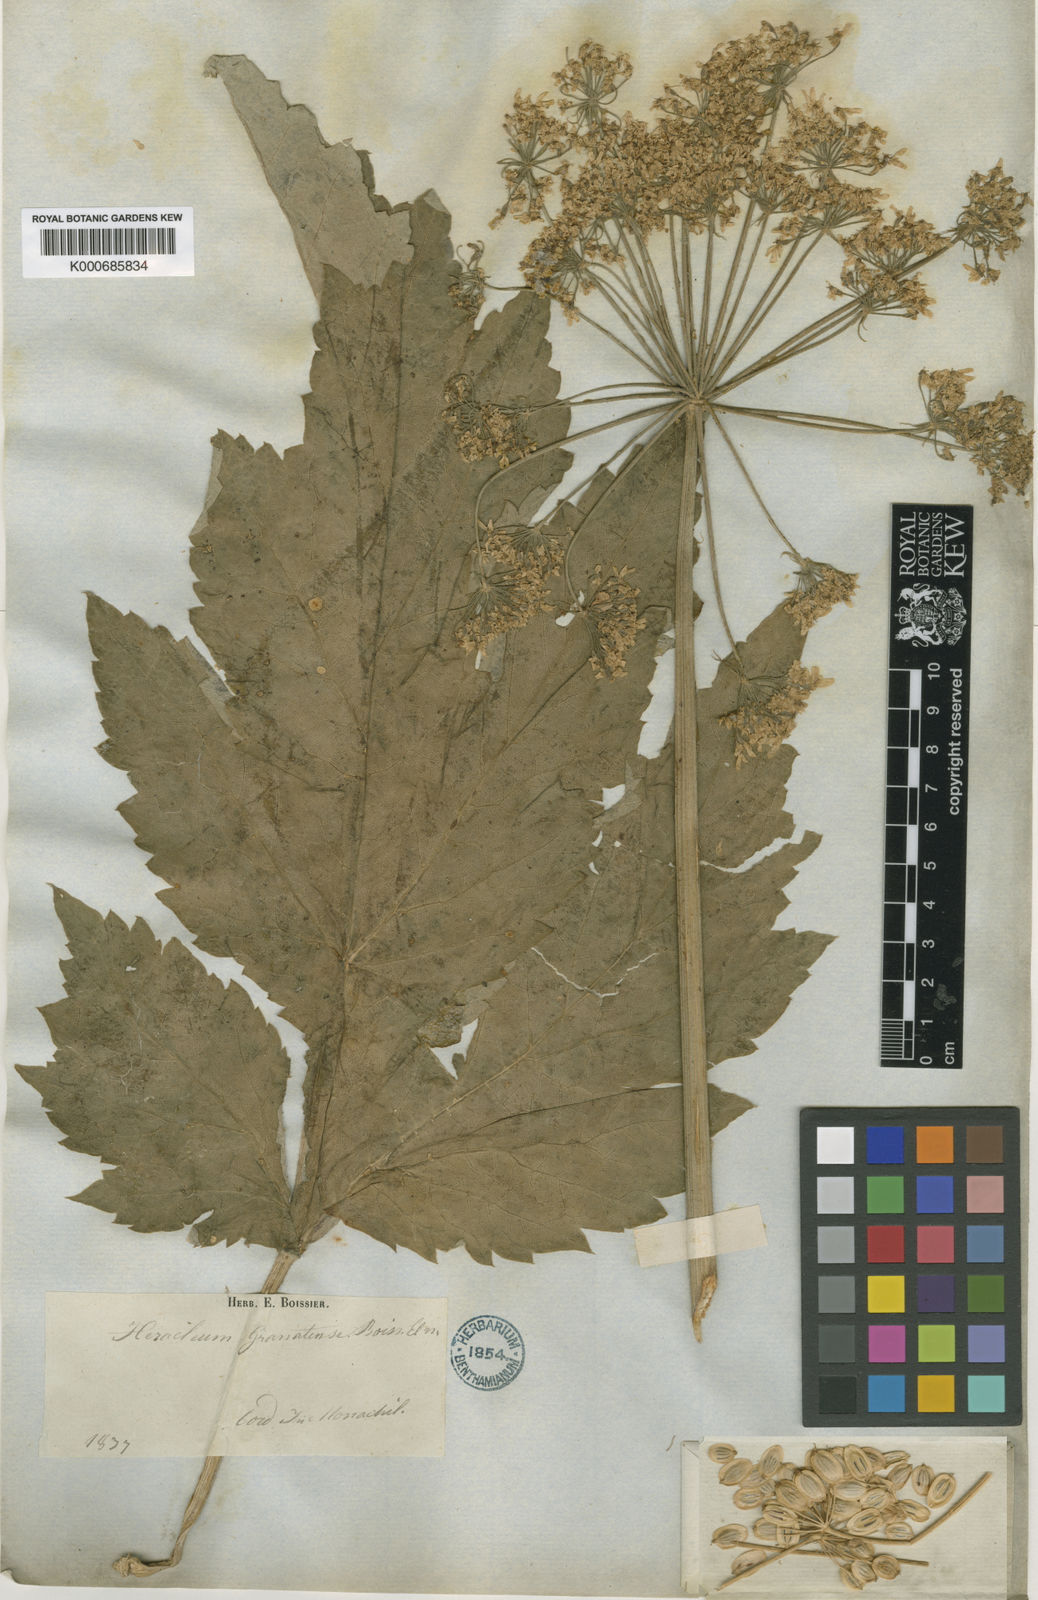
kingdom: Plantae
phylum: Tracheophyta
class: Magnoliopsida
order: Apiales
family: Apiaceae
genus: Heracleum
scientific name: Heracleum sphondylium
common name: Hogweed
